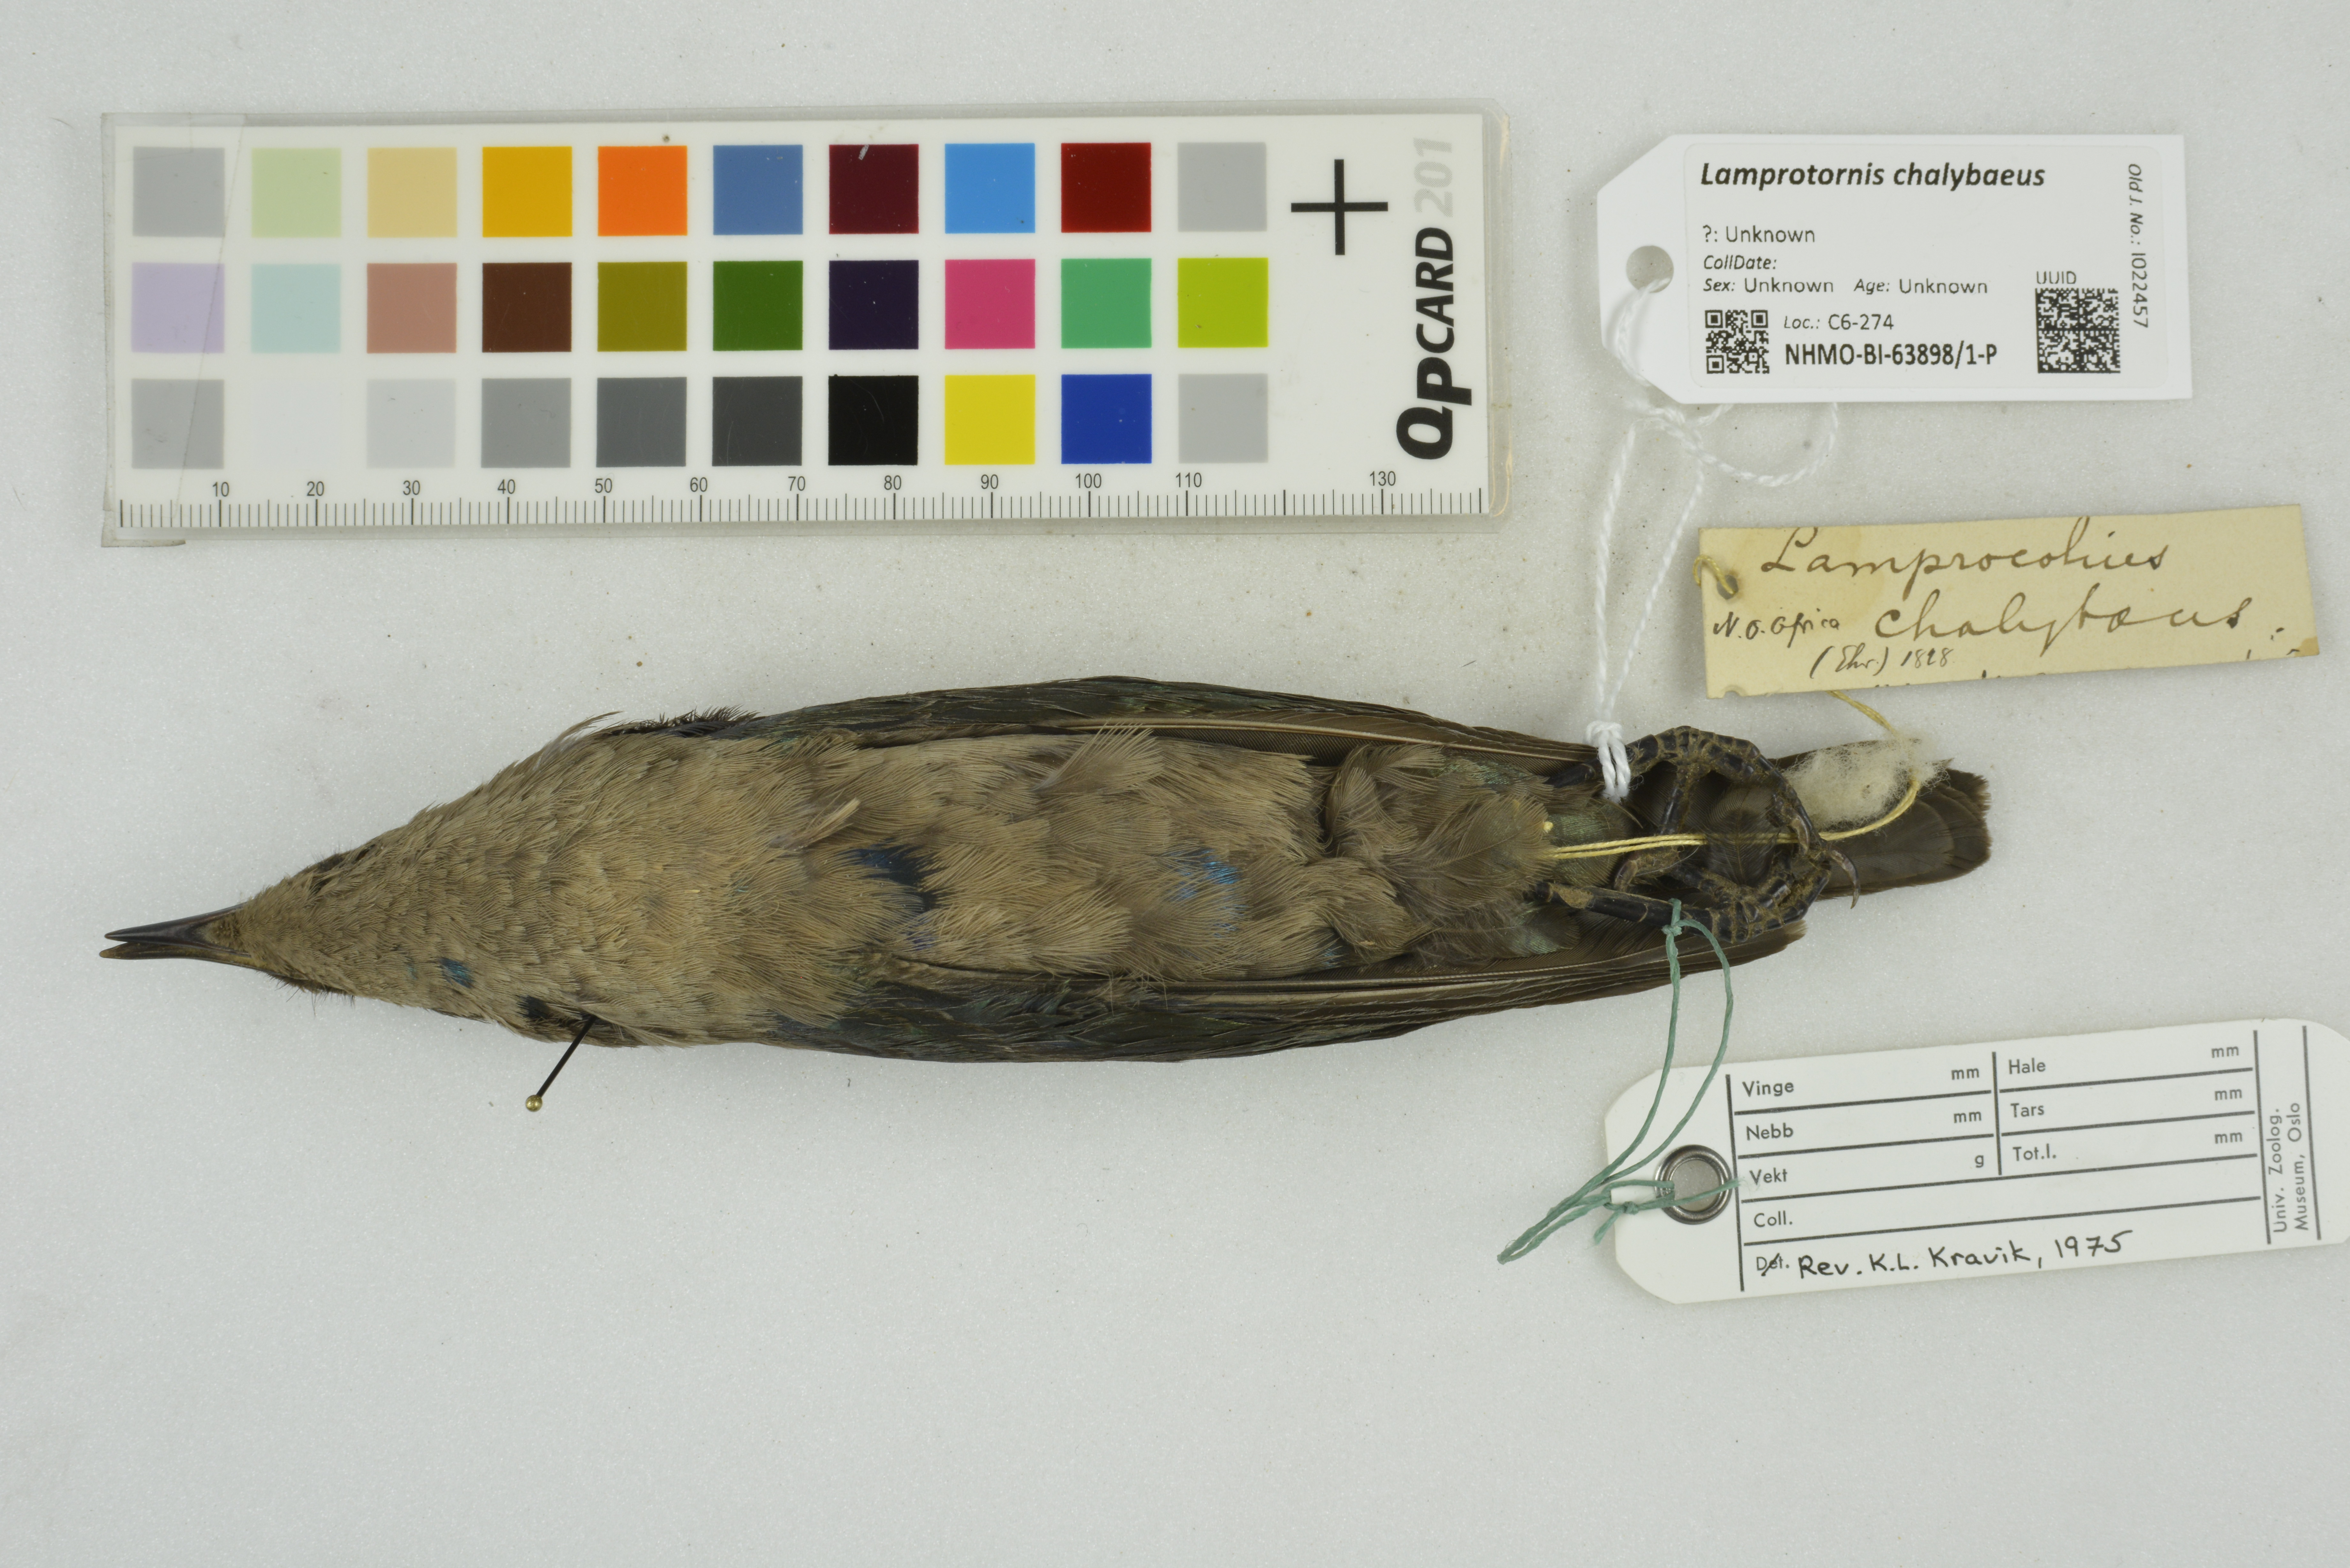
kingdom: Animalia
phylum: Chordata
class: Aves
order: Passeriformes
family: Sturnidae
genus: Lamprotornis
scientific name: Lamprotornis chalybaeus
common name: Greater blue-eared starling
